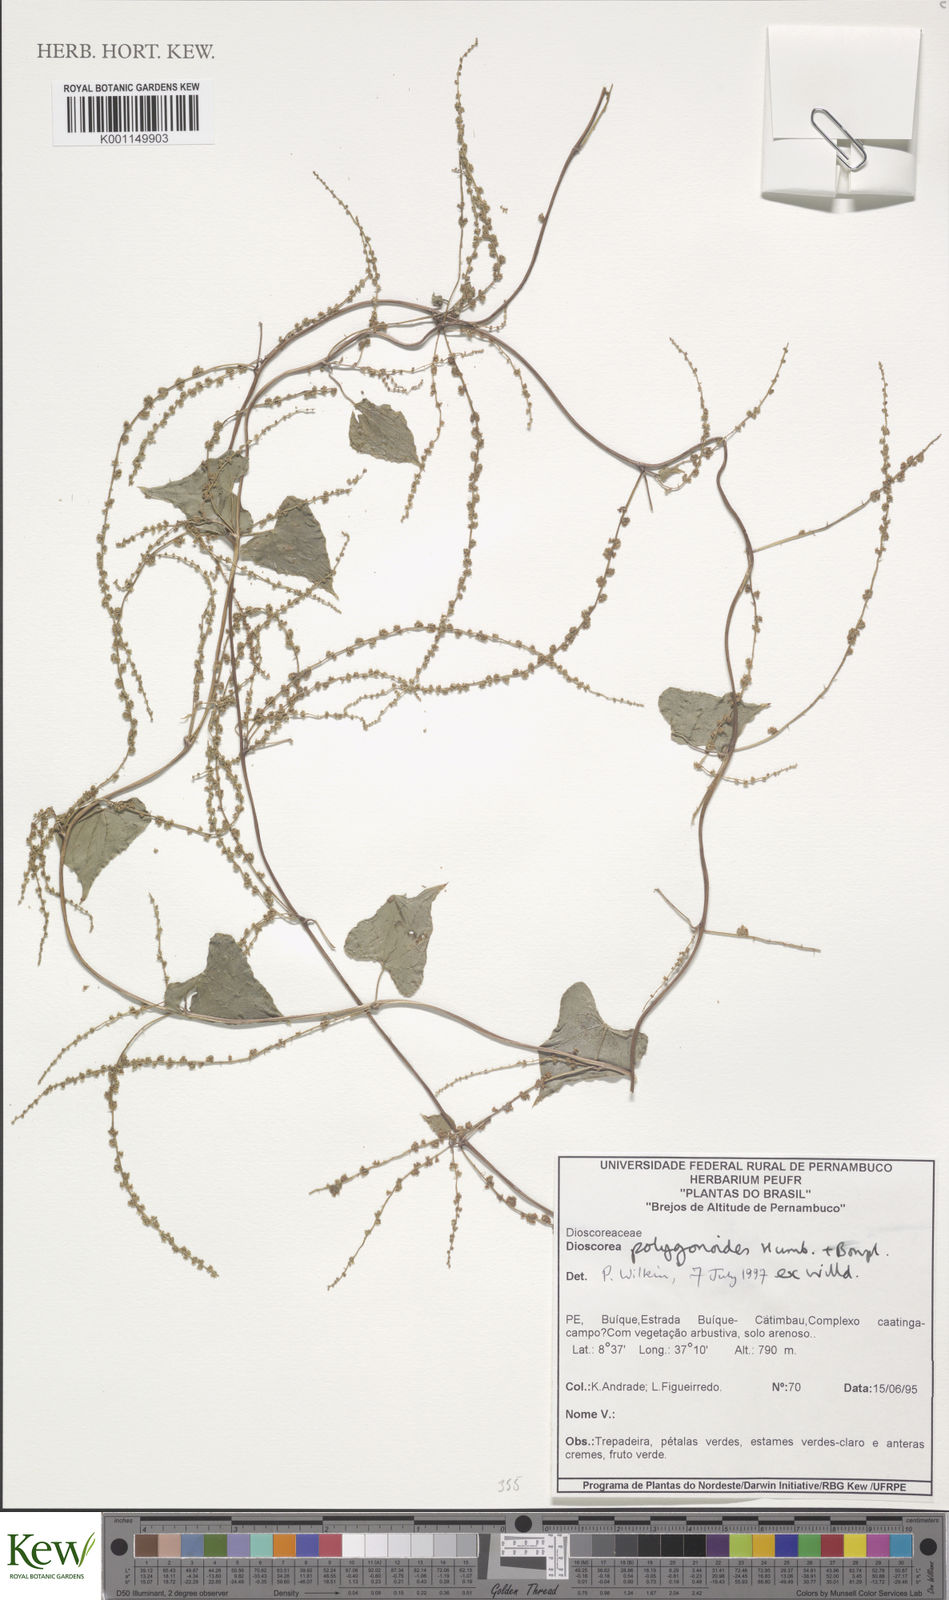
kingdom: Plantae
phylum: Tracheophyta
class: Liliopsida
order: Dioscoreales
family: Dioscoreaceae
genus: Dioscorea
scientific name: Dioscorea martiana
